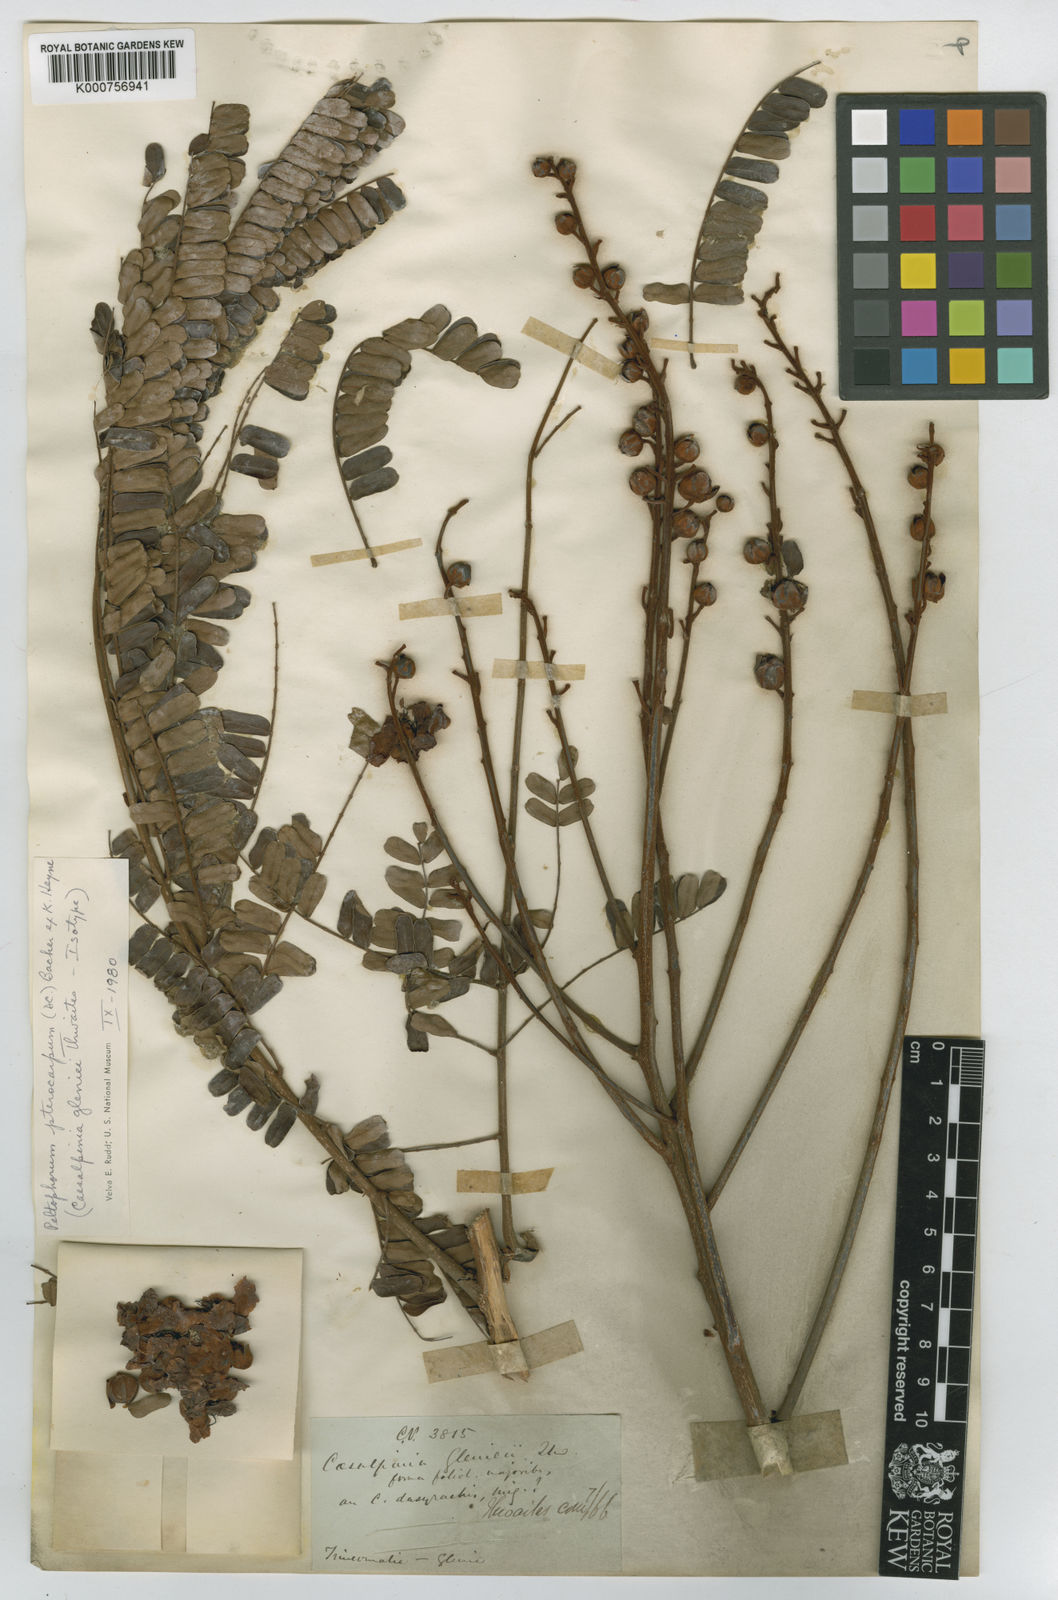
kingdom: Plantae
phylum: Tracheophyta
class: Magnoliopsida
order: Fabales
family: Fabaceae
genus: Peltophorum
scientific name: Peltophorum pterocarpum
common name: Yellow flame
